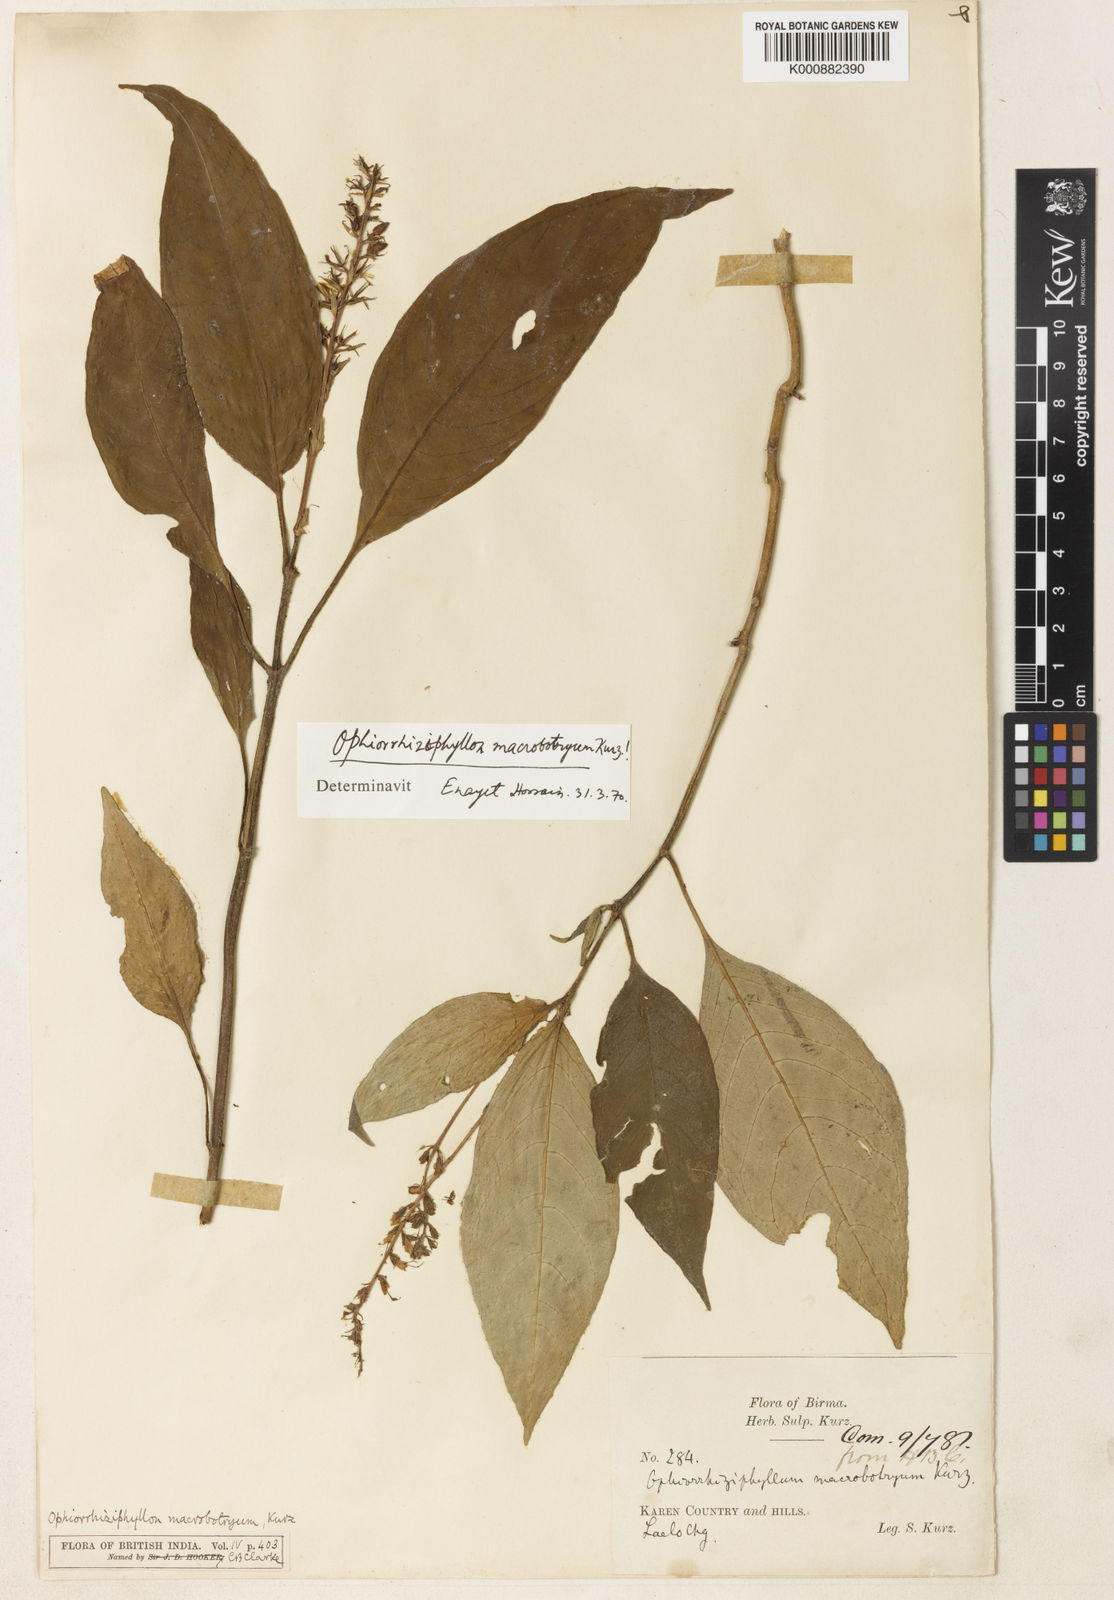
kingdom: Plantae
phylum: Tracheophyta
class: Magnoliopsida
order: Lamiales
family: Acanthaceae
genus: Staurogyne
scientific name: Staurogyne macrobotrya
